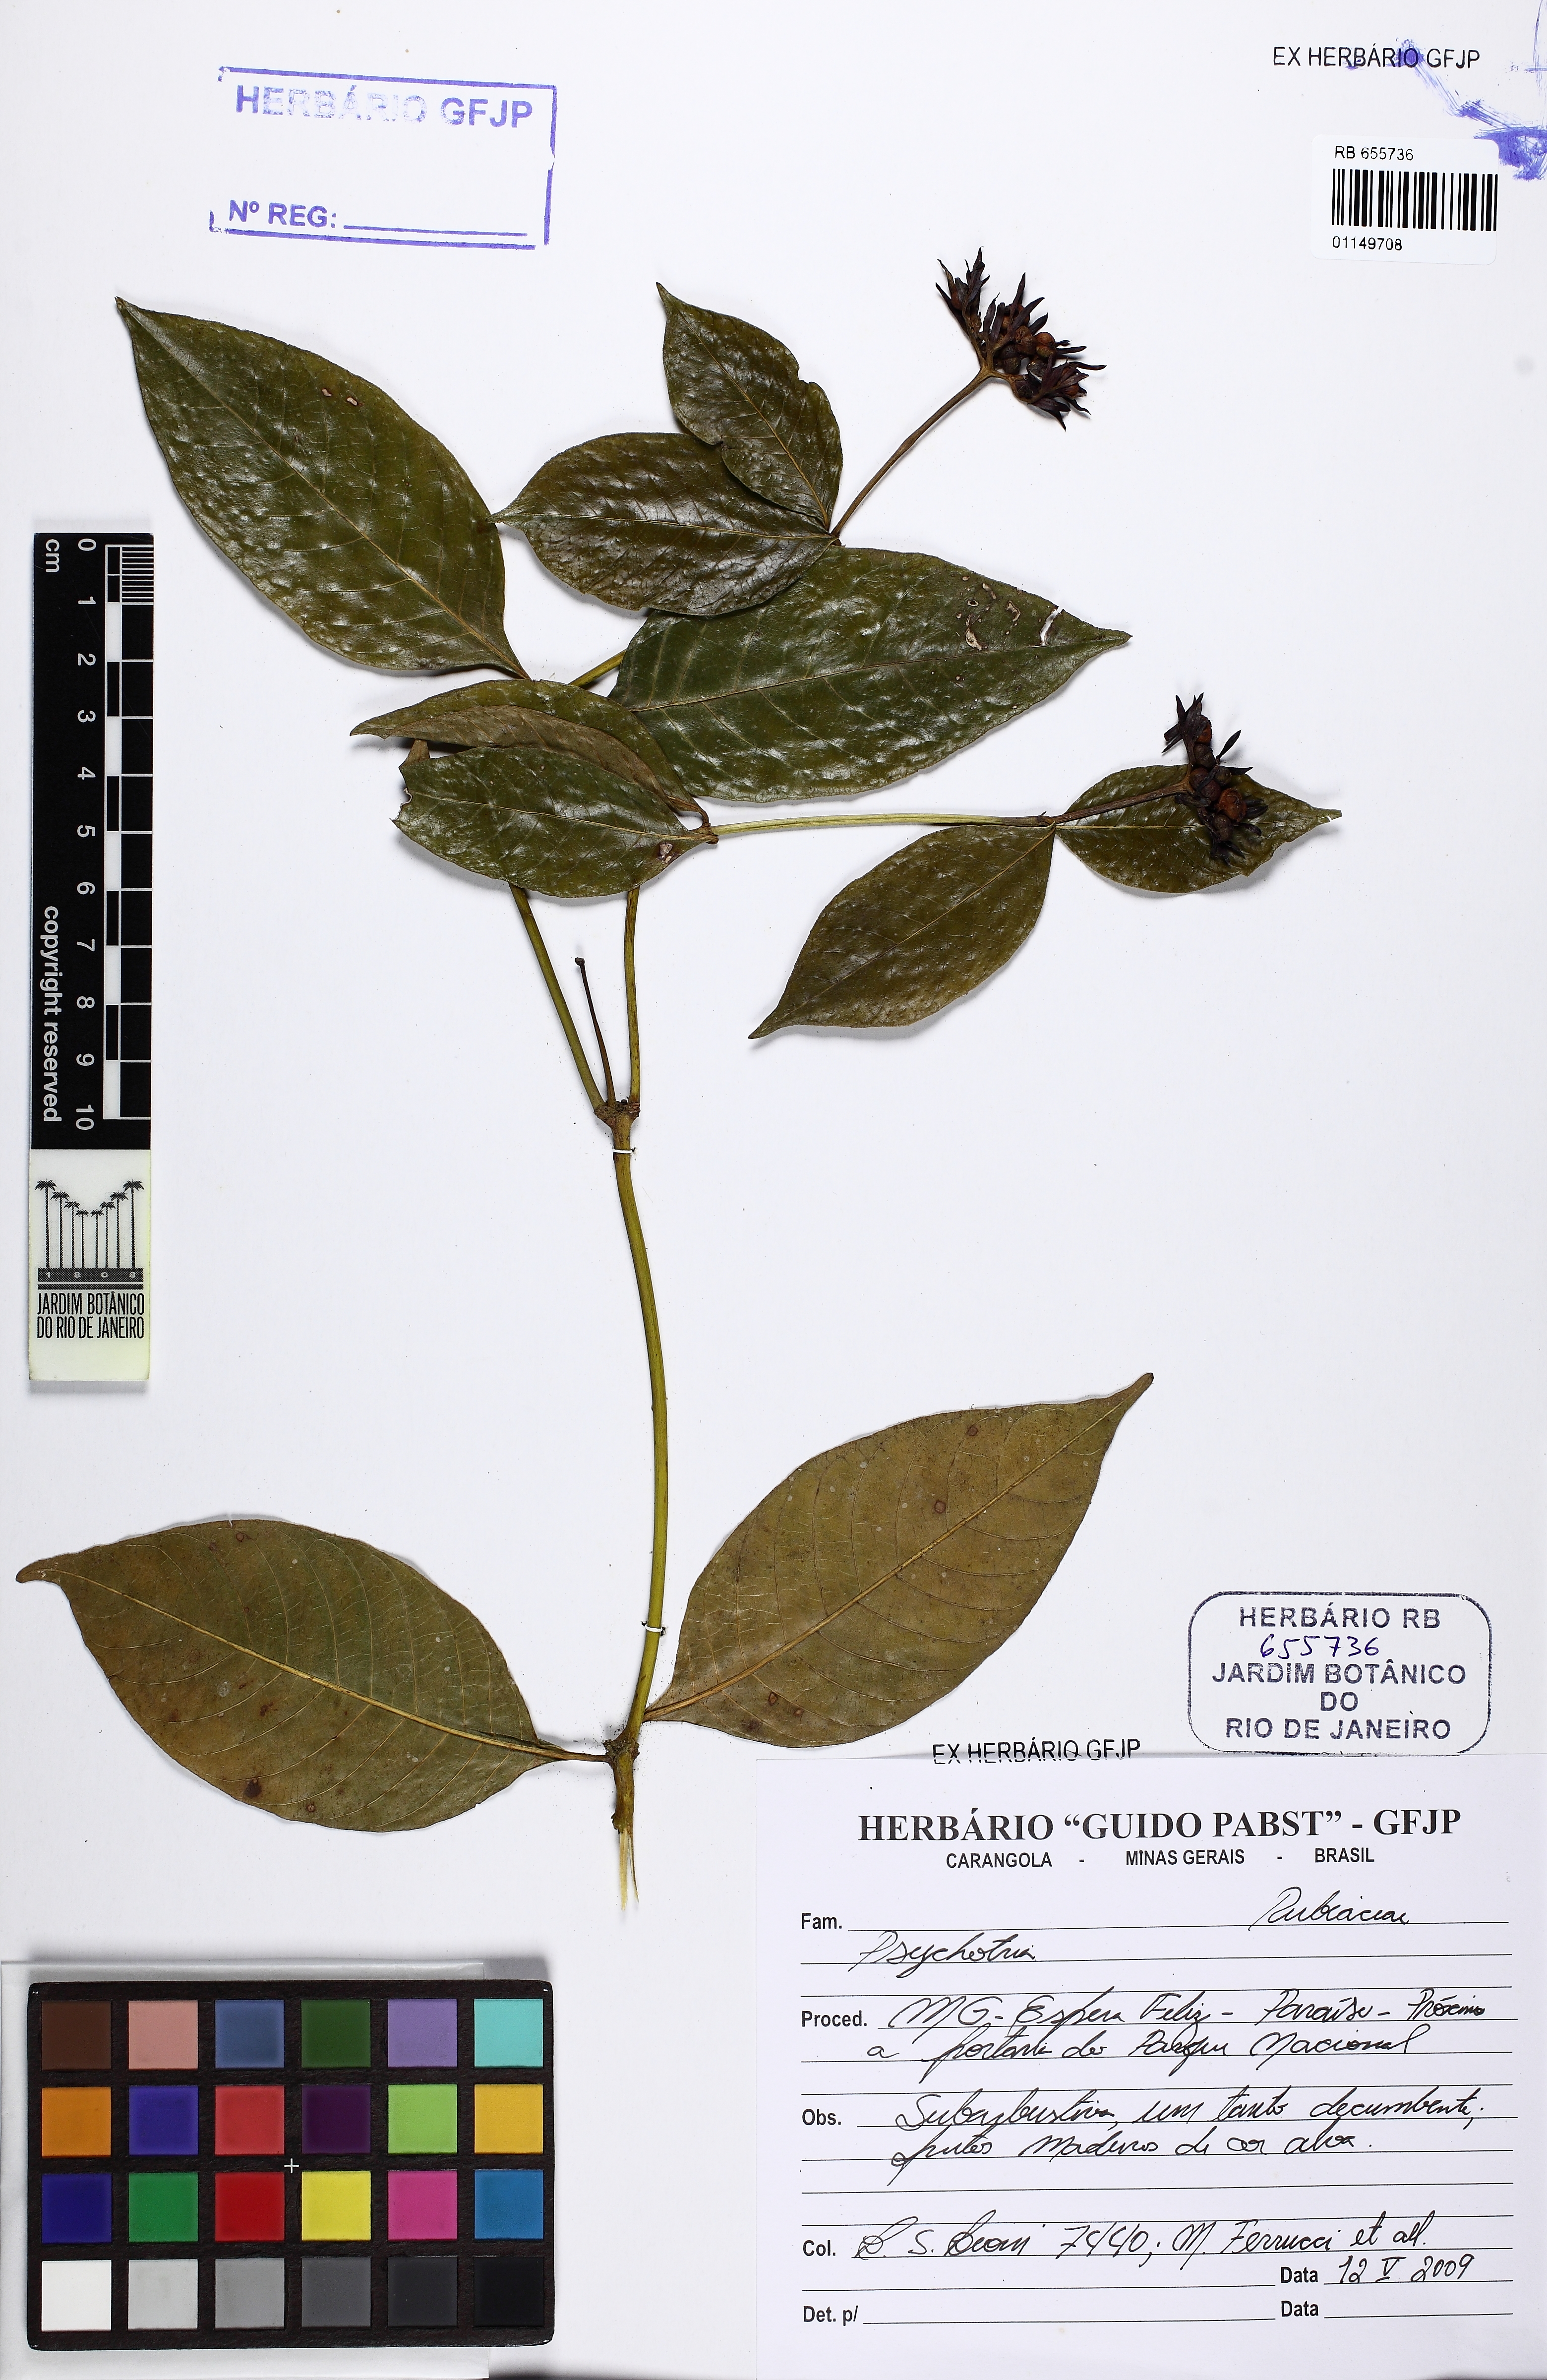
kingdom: Plantae
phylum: Tracheophyta
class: Magnoliopsida
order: Gentianales
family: Rubiaceae
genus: Psychotria
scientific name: Psychotria
